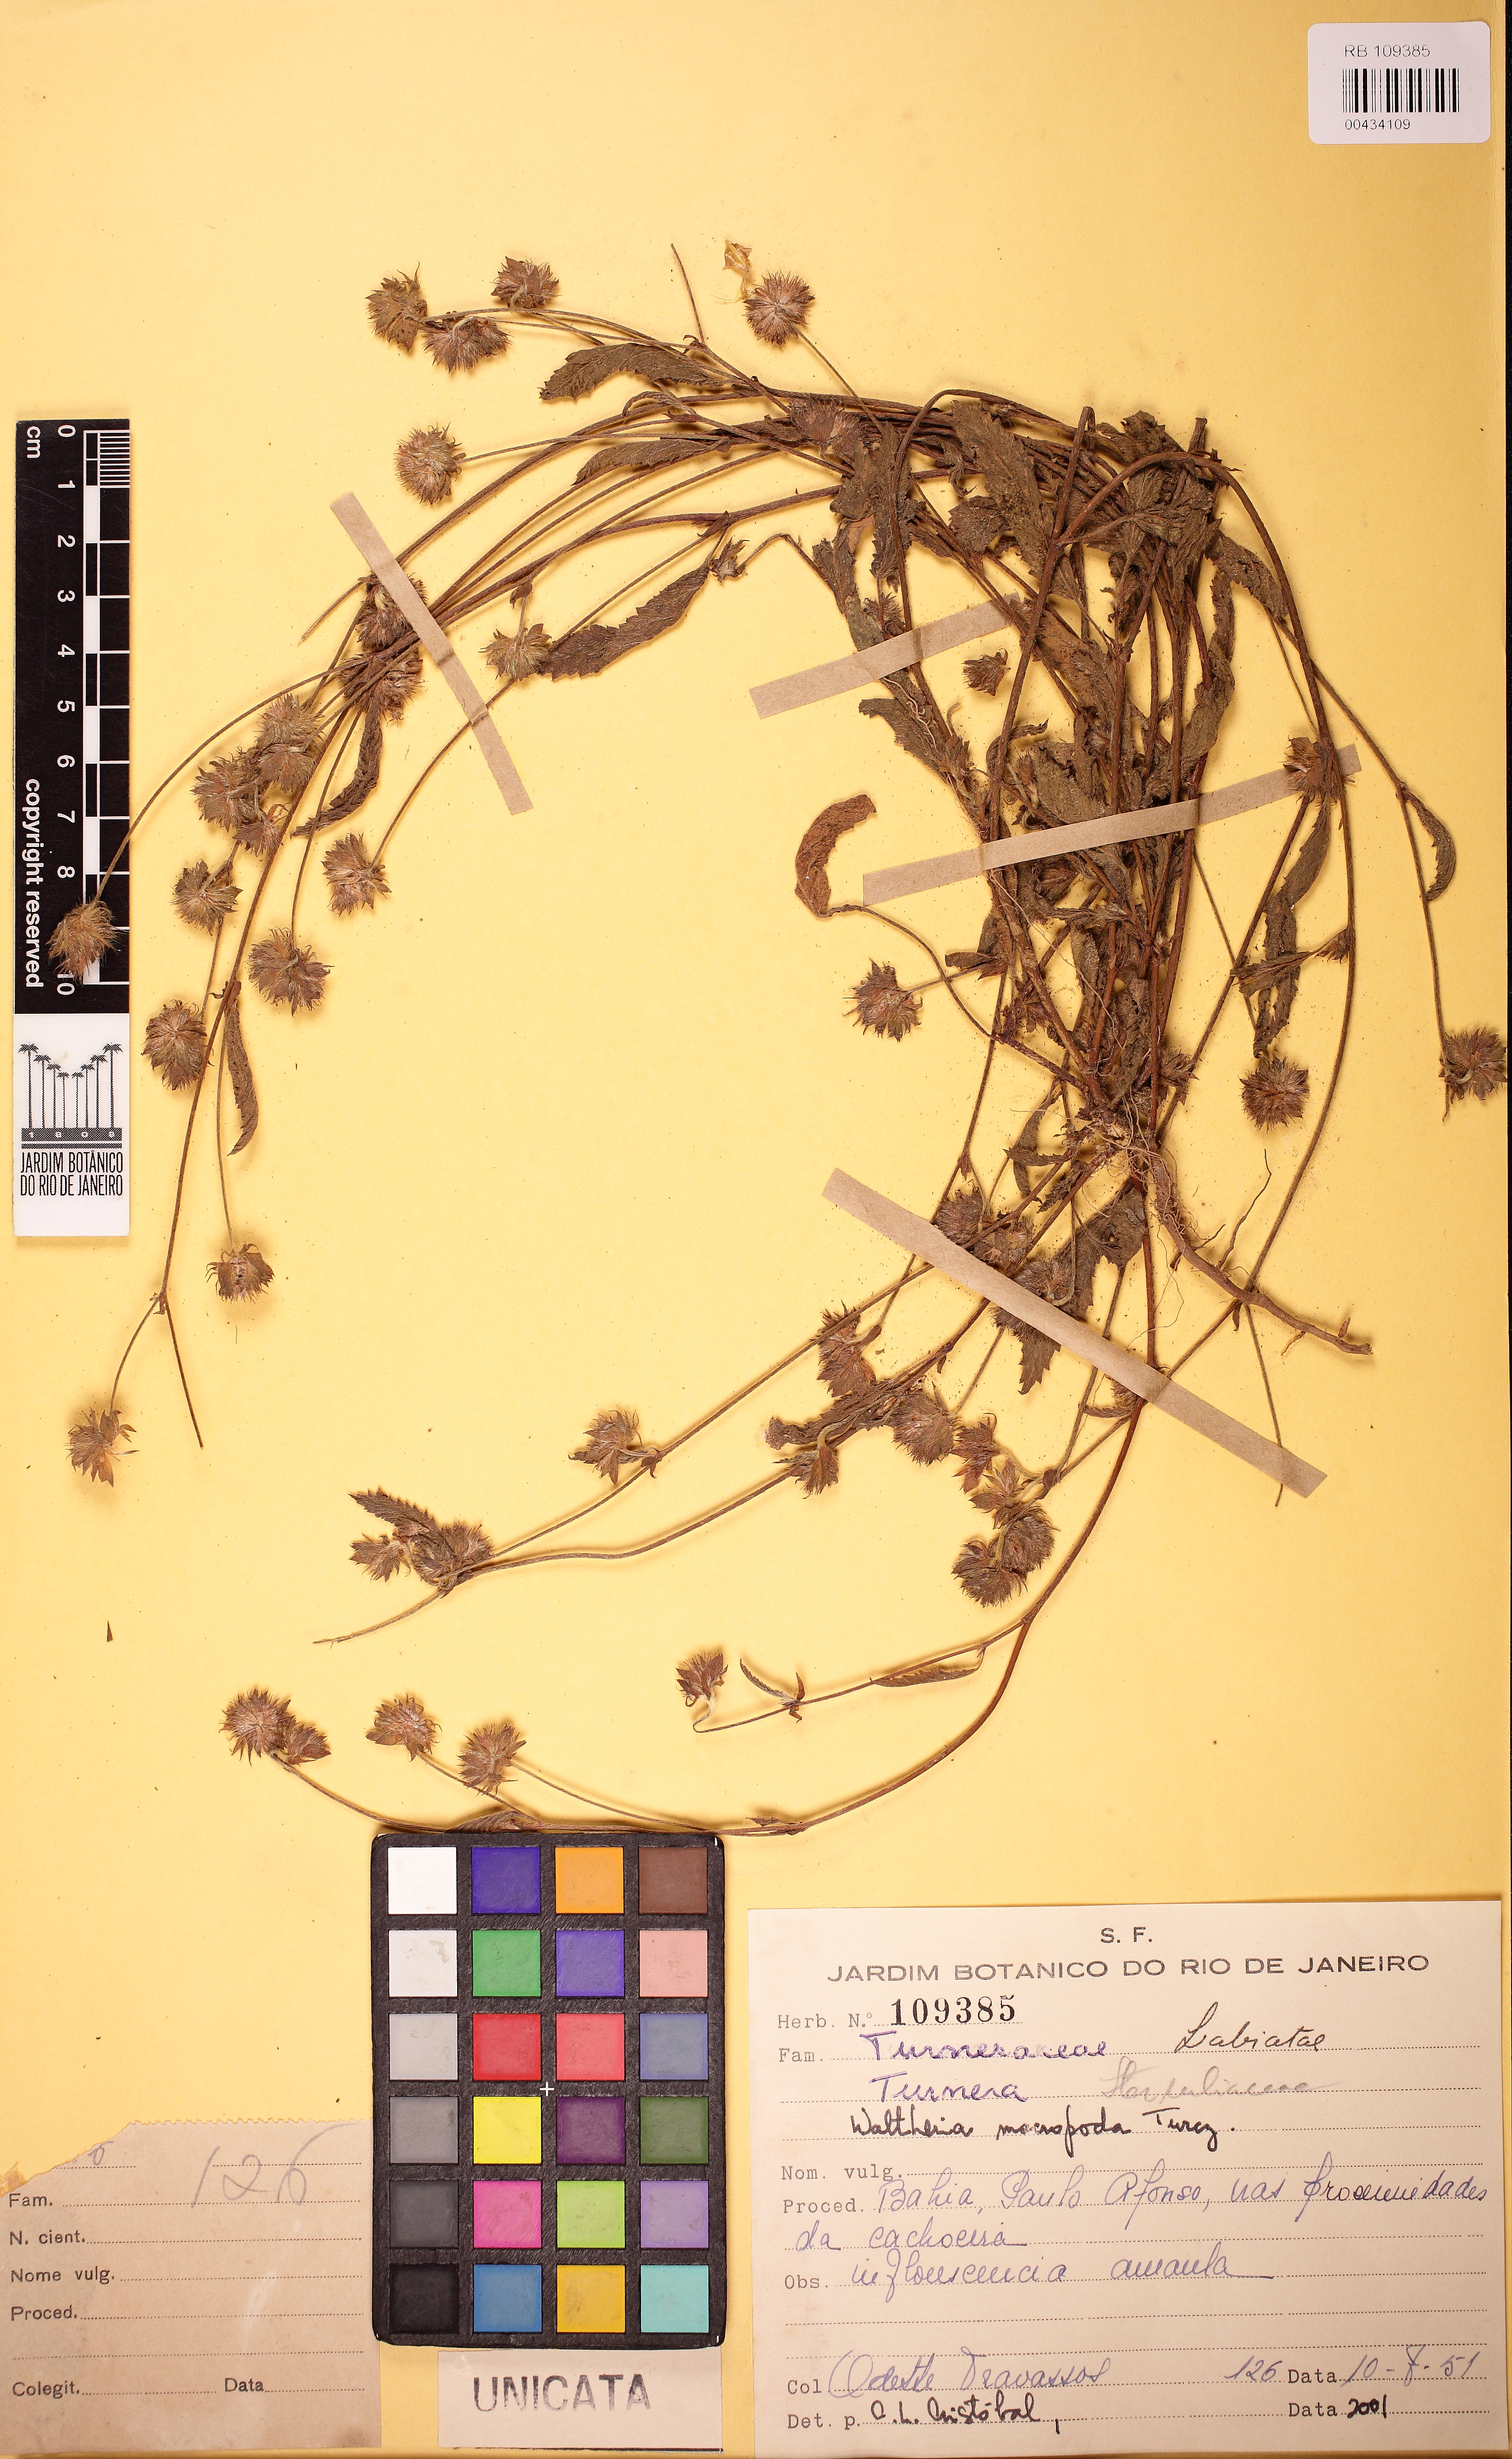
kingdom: Plantae
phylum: Tracheophyta
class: Magnoliopsida
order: Malvales
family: Malvaceae
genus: Waltheria
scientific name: Waltheria bracteosa
